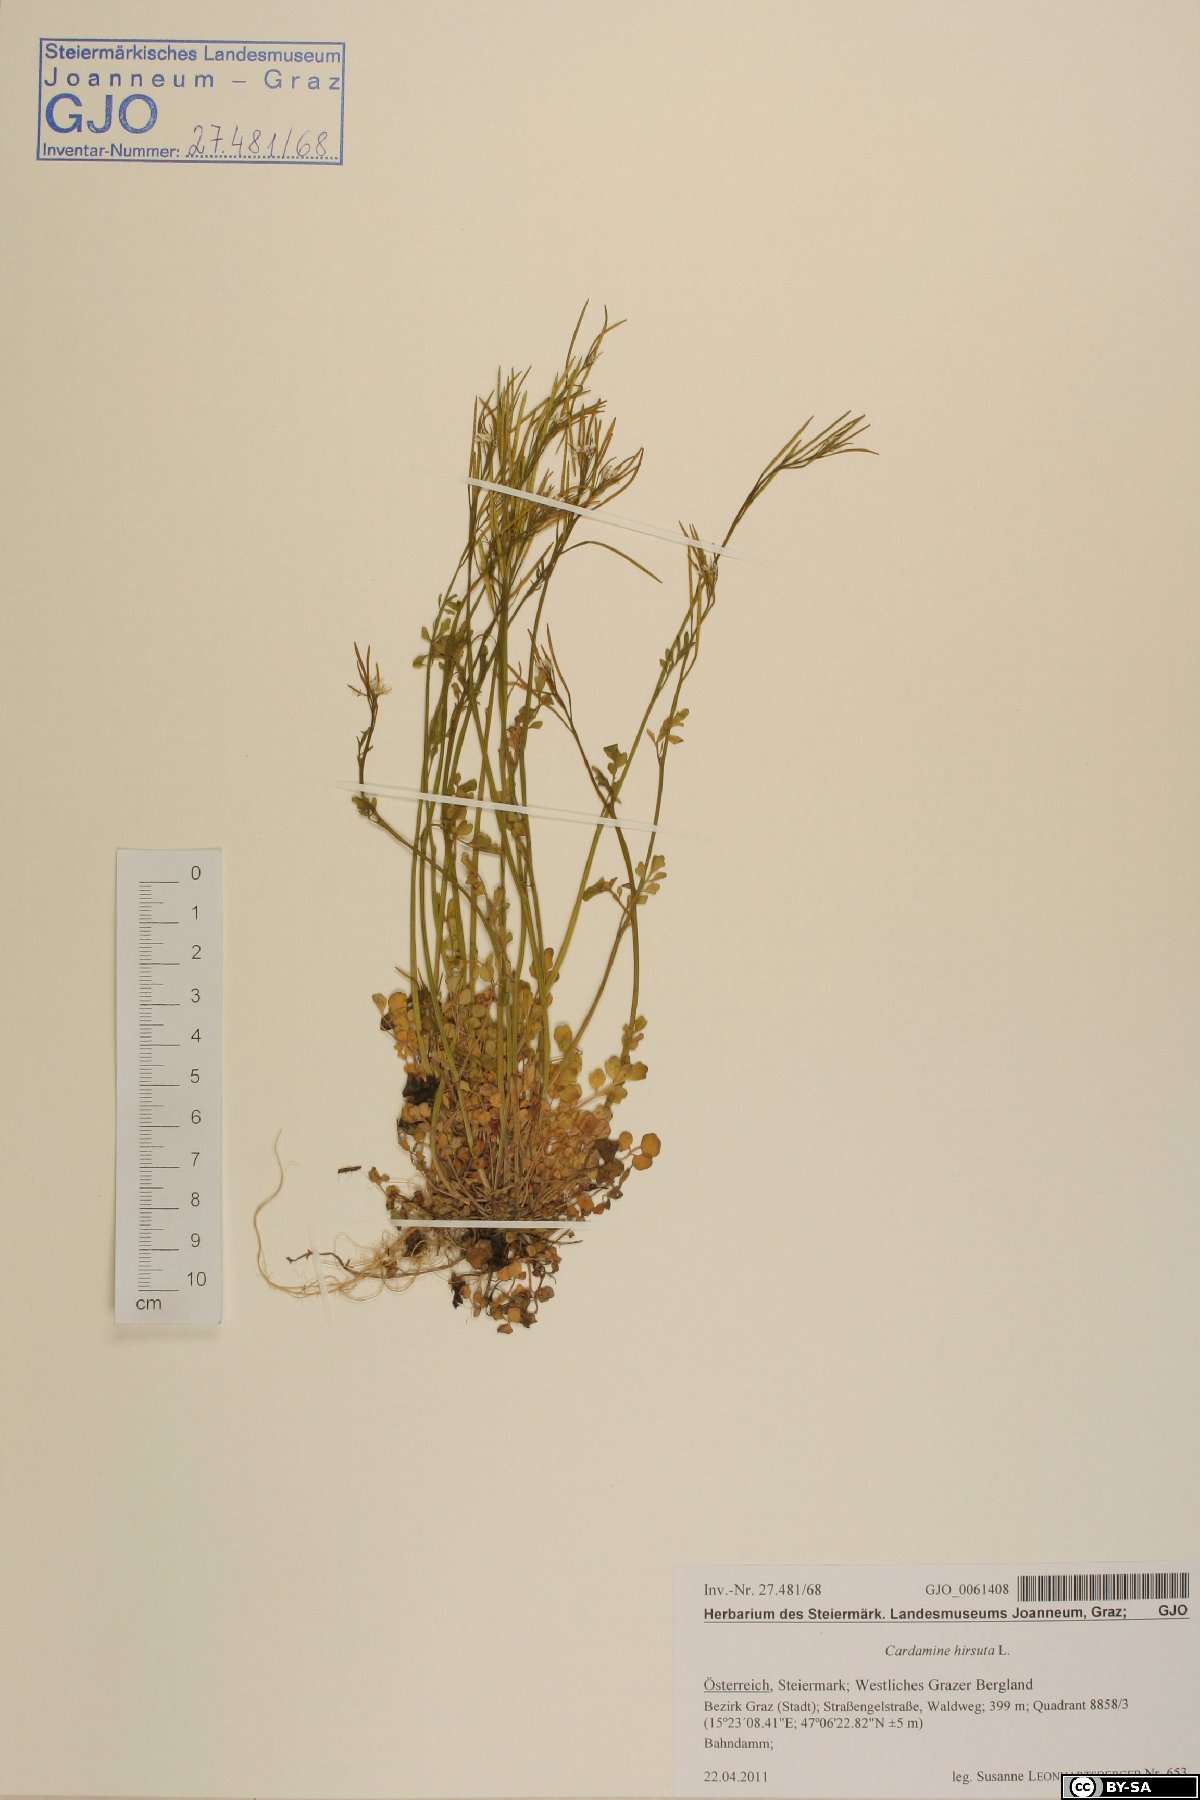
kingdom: Plantae
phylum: Tracheophyta
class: Magnoliopsida
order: Brassicales
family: Brassicaceae
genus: Cardamine
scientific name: Cardamine hirsuta
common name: Hairy bittercress
